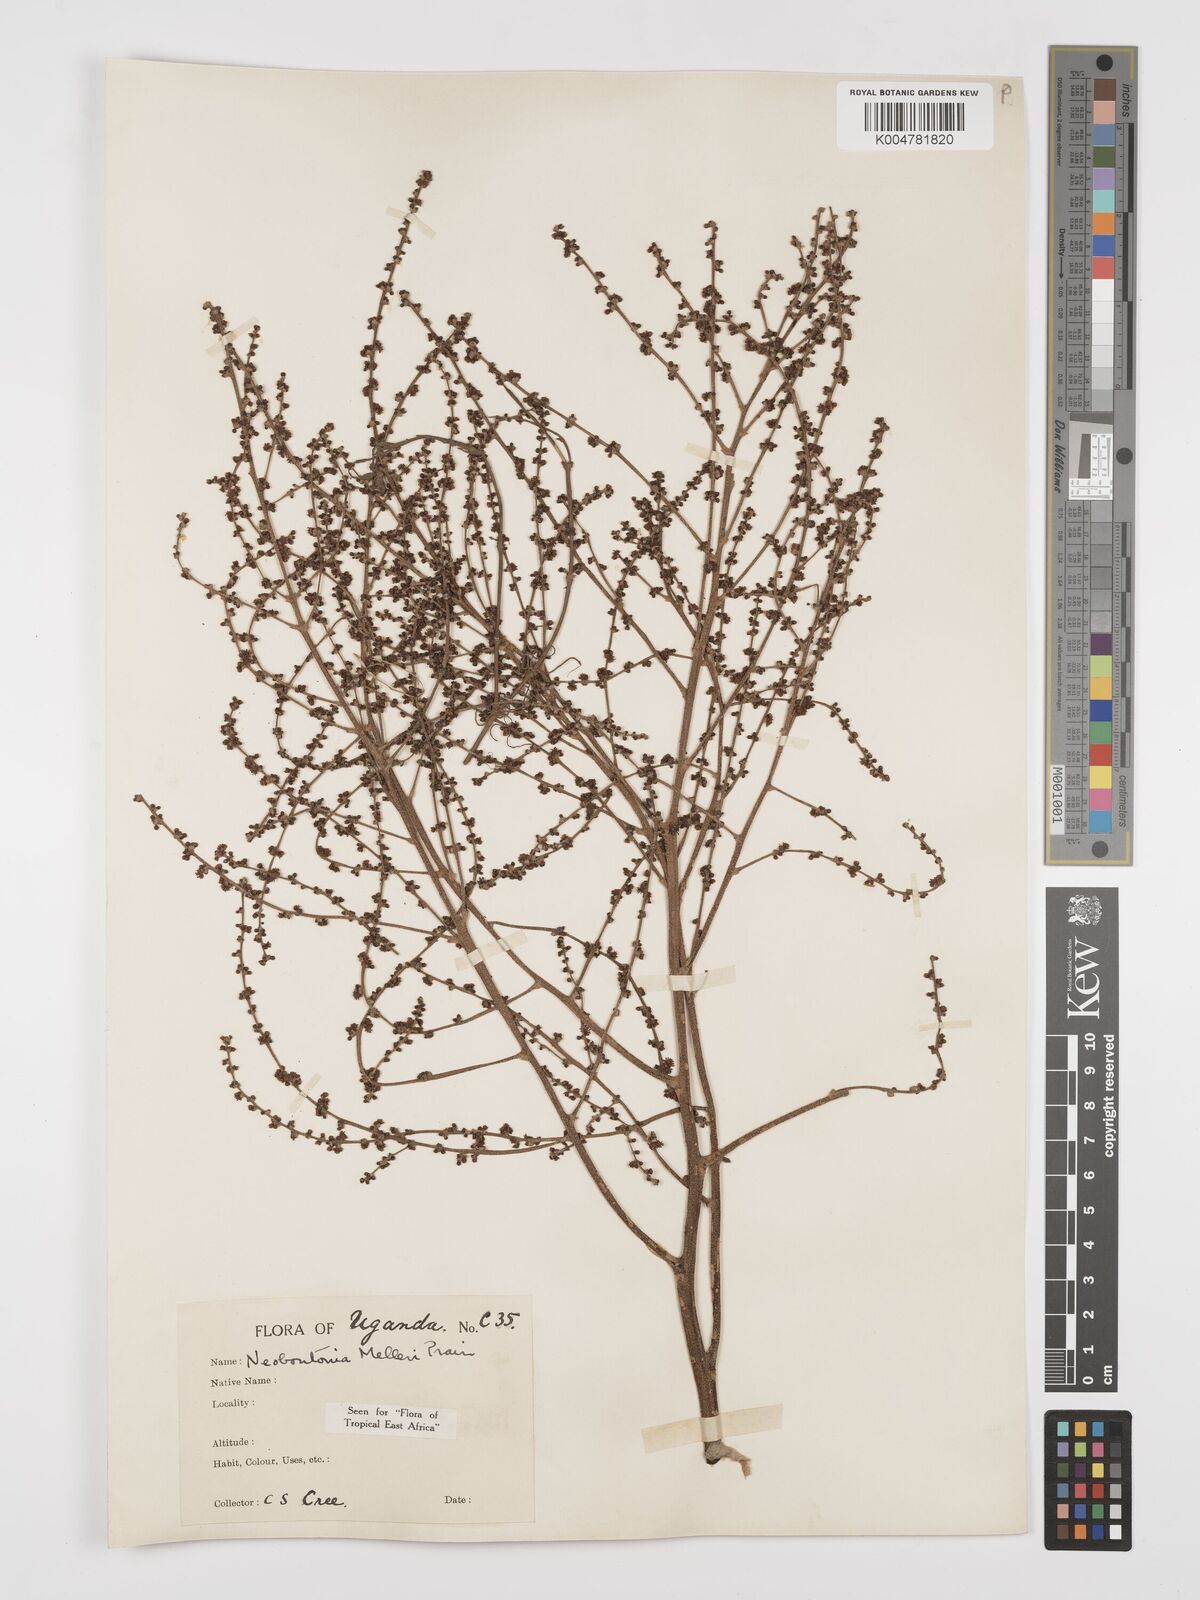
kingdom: Plantae
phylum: Tracheophyta
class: Magnoliopsida
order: Malpighiales
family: Euphorbiaceae
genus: Neoboutonia
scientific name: Neoboutonia melleri
